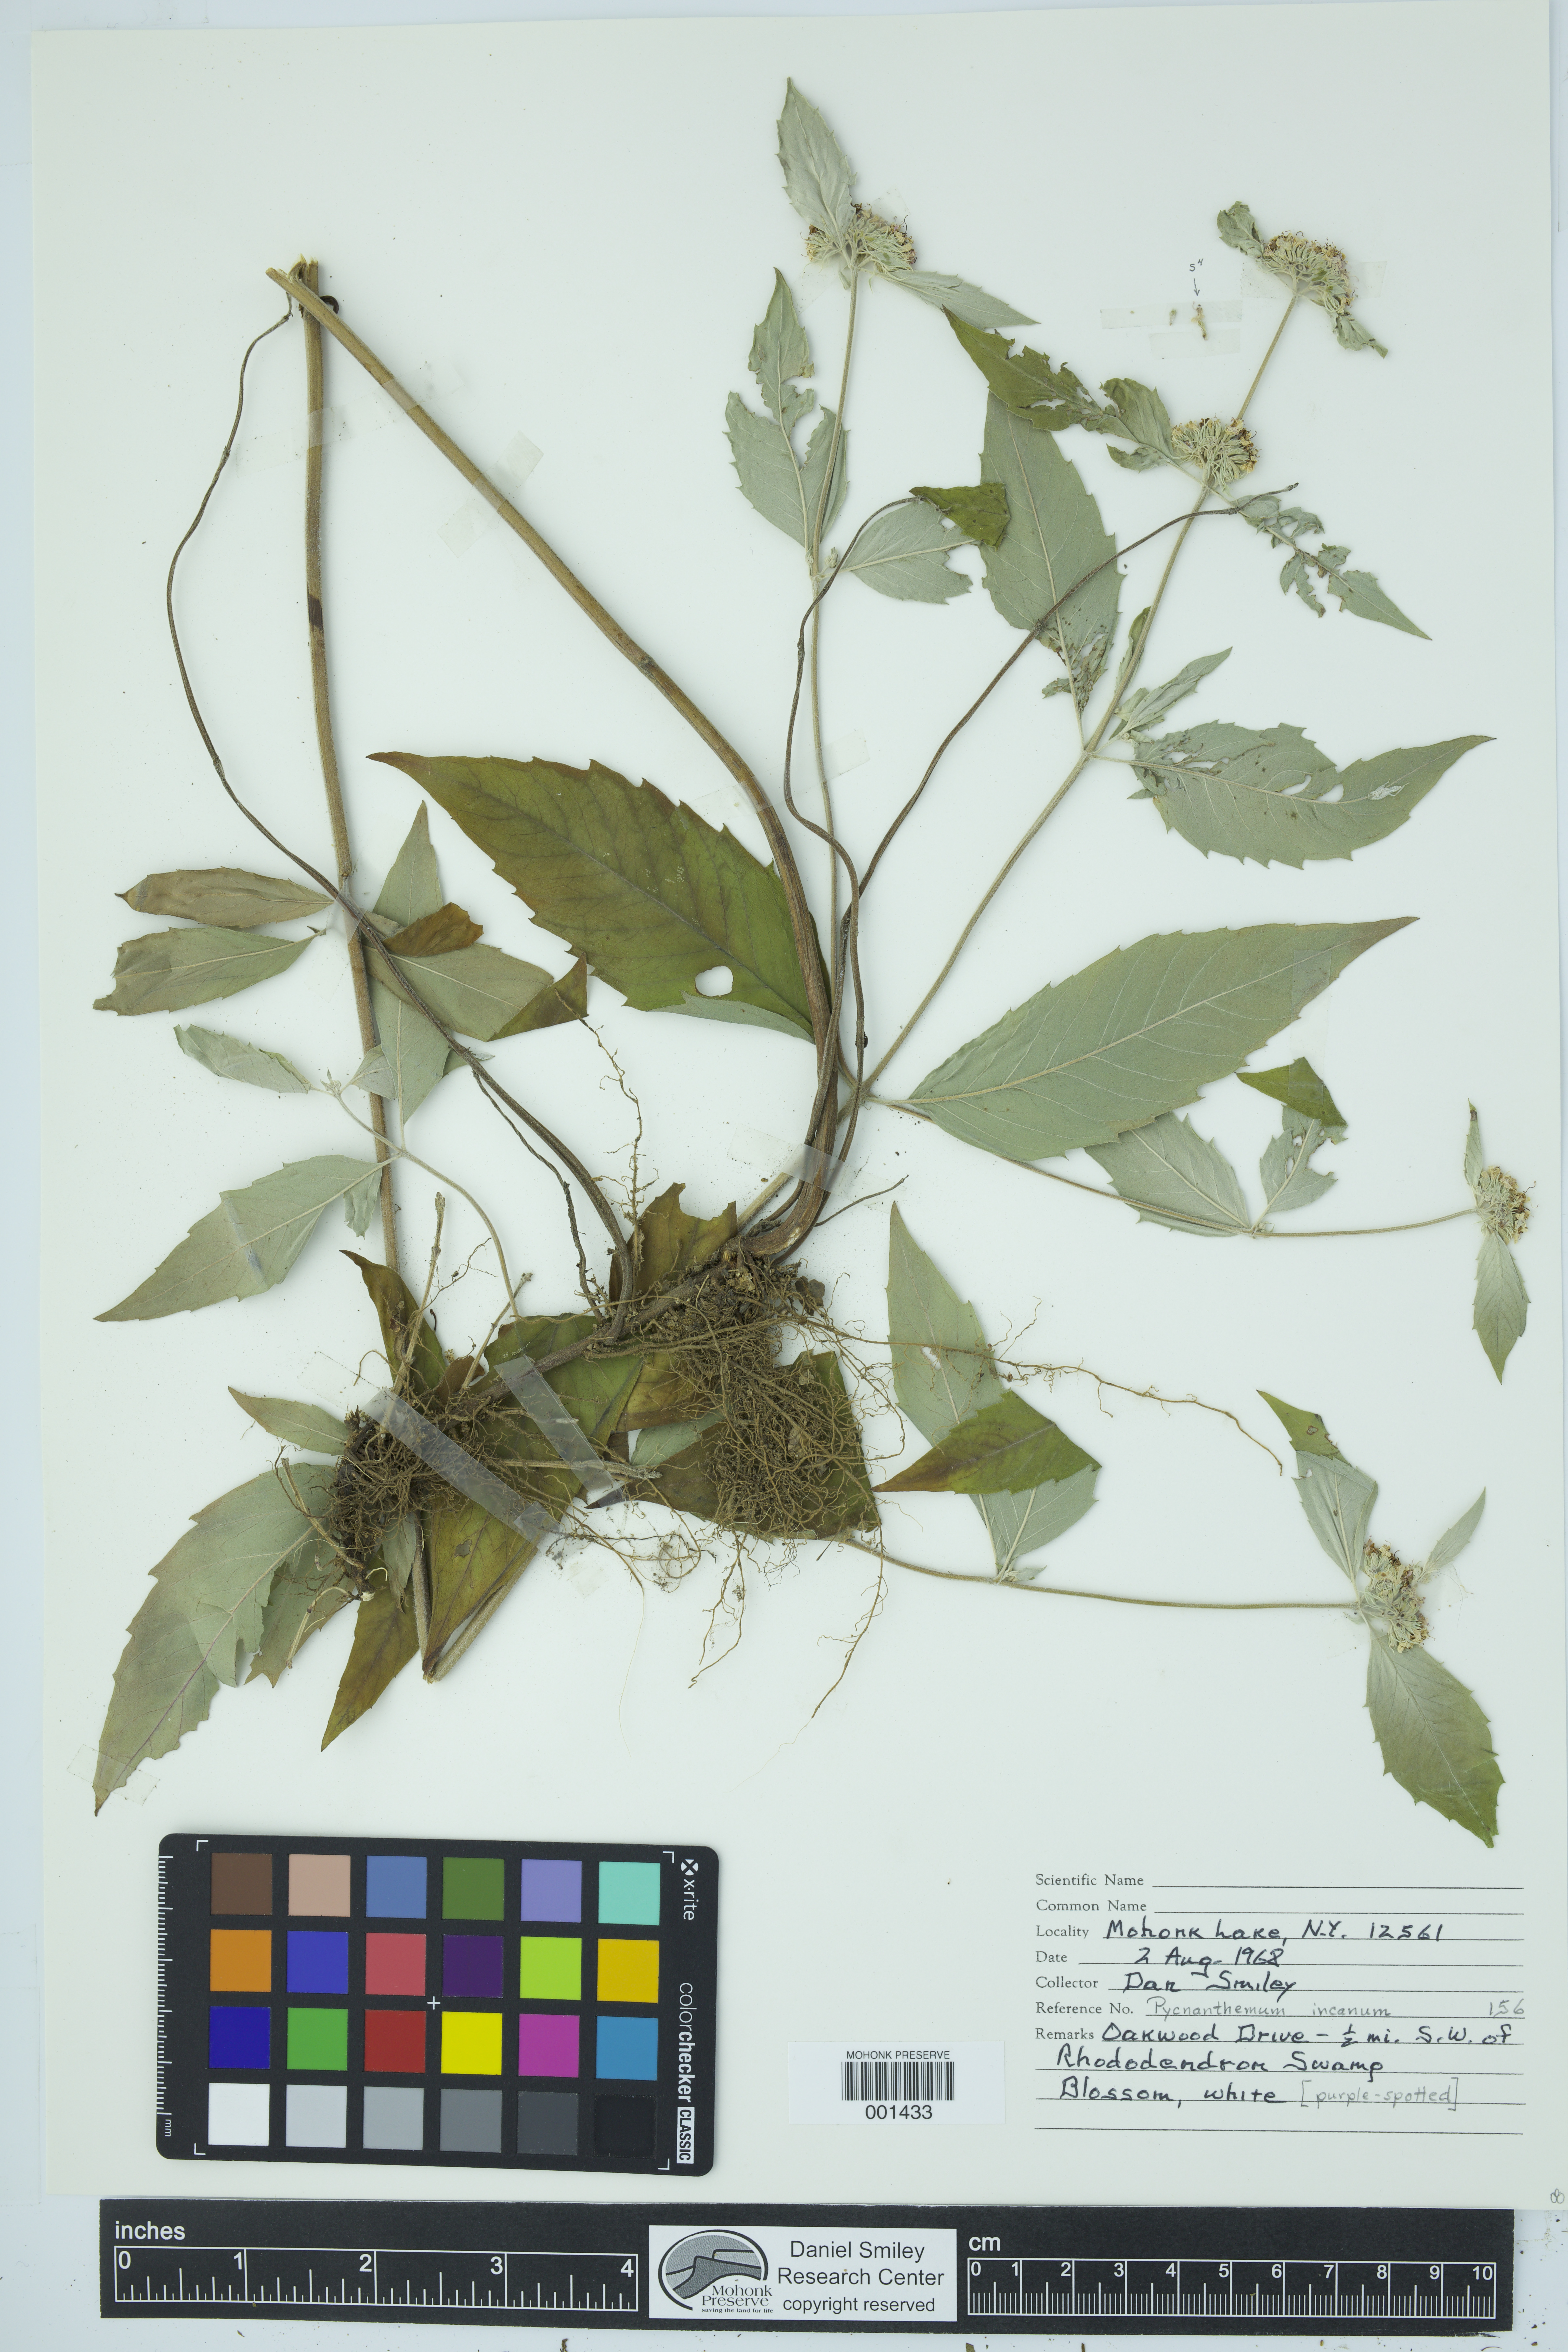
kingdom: Plantae
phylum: Tracheophyta
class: Magnoliopsida
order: Lamiales
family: Lamiaceae
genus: Pycnanthemum
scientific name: Pycnanthemum incanum
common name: Hoary mountain-mint
